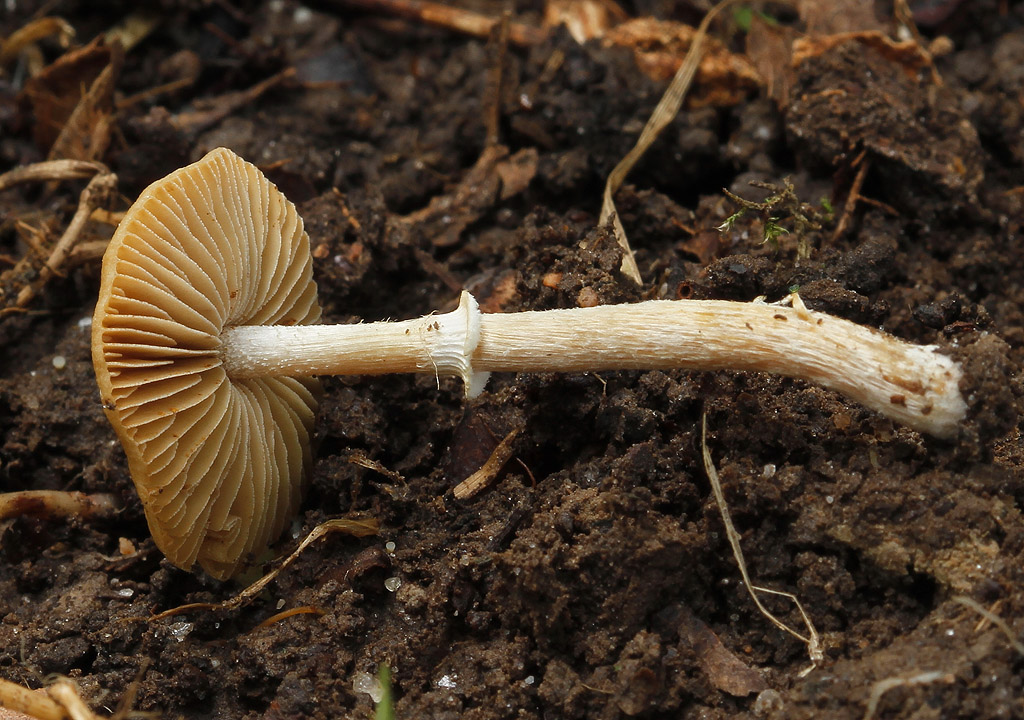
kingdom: Fungi
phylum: Basidiomycota
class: Agaricomycetes
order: Agaricales
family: Bolbitiaceae
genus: Conocybe
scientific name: Conocybe arrhenii
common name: ring-dansehat
